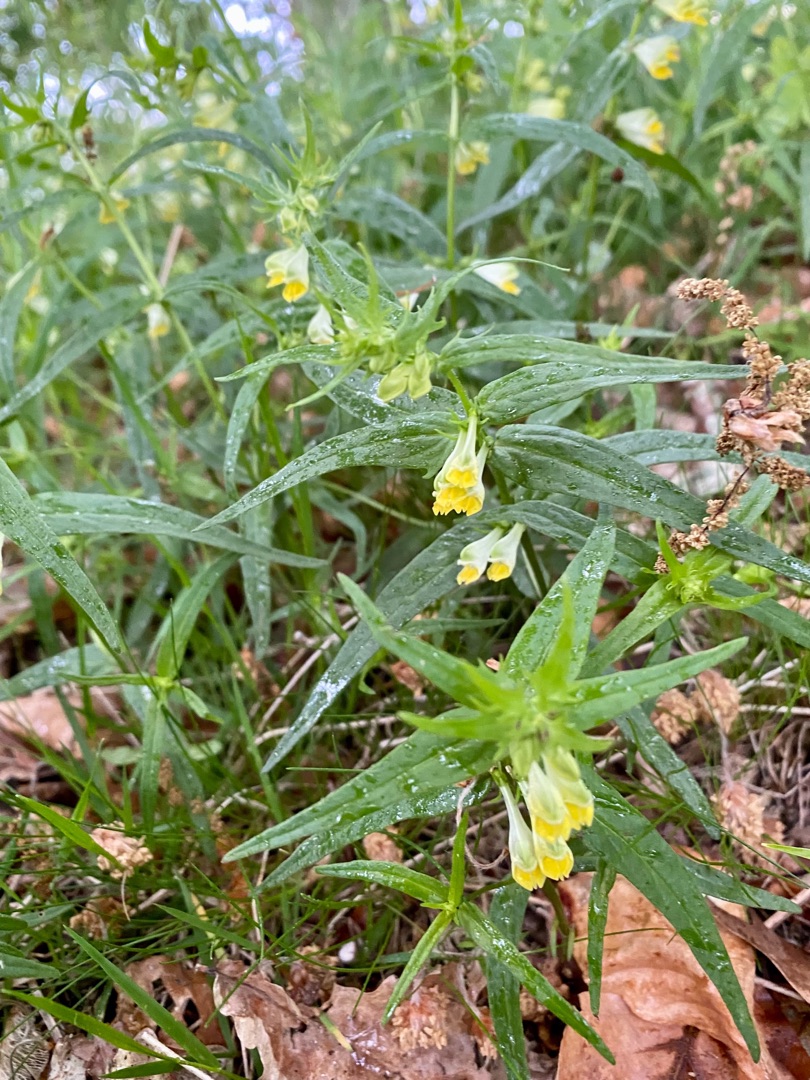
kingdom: Plantae
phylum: Tracheophyta
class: Magnoliopsida
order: Lamiales
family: Orobanchaceae
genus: Melampyrum
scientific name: Melampyrum pratense
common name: Almindelig kohvede
